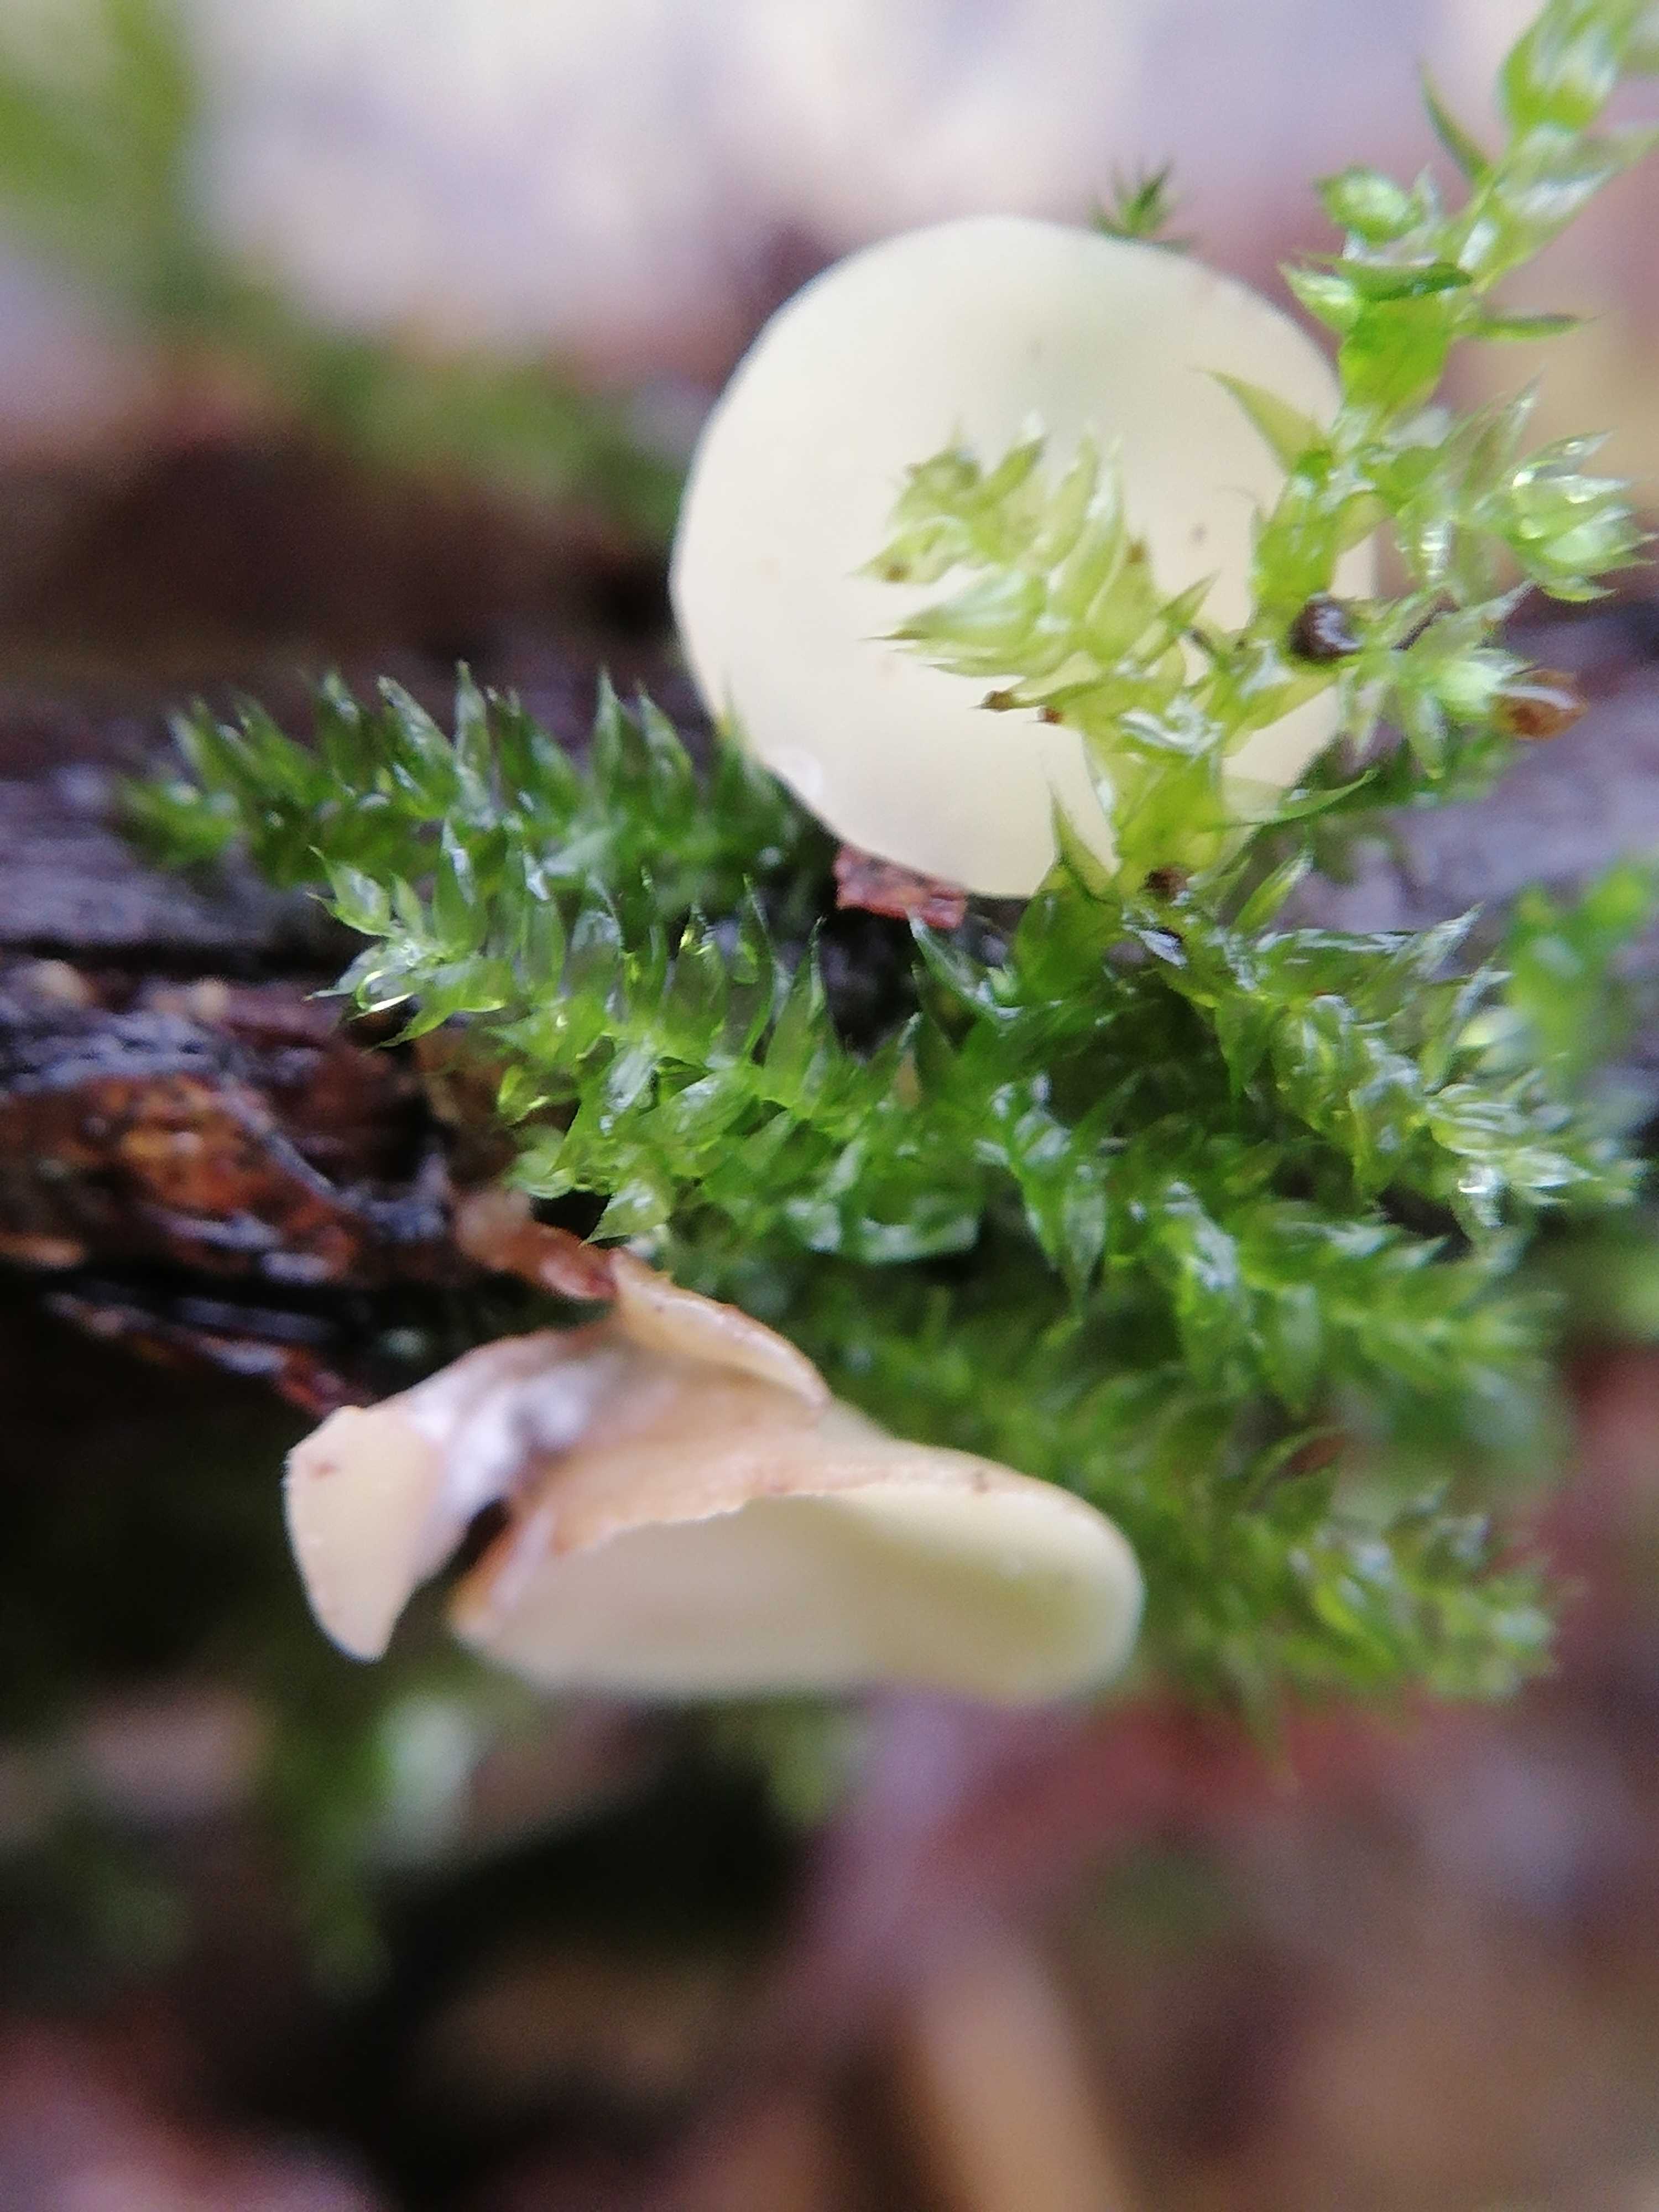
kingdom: Fungi
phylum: Ascomycota
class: Leotiomycetes
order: Helotiales
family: Helotiaceae
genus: Hymenoscyphus
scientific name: Hymenoscyphus
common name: stilkskive
